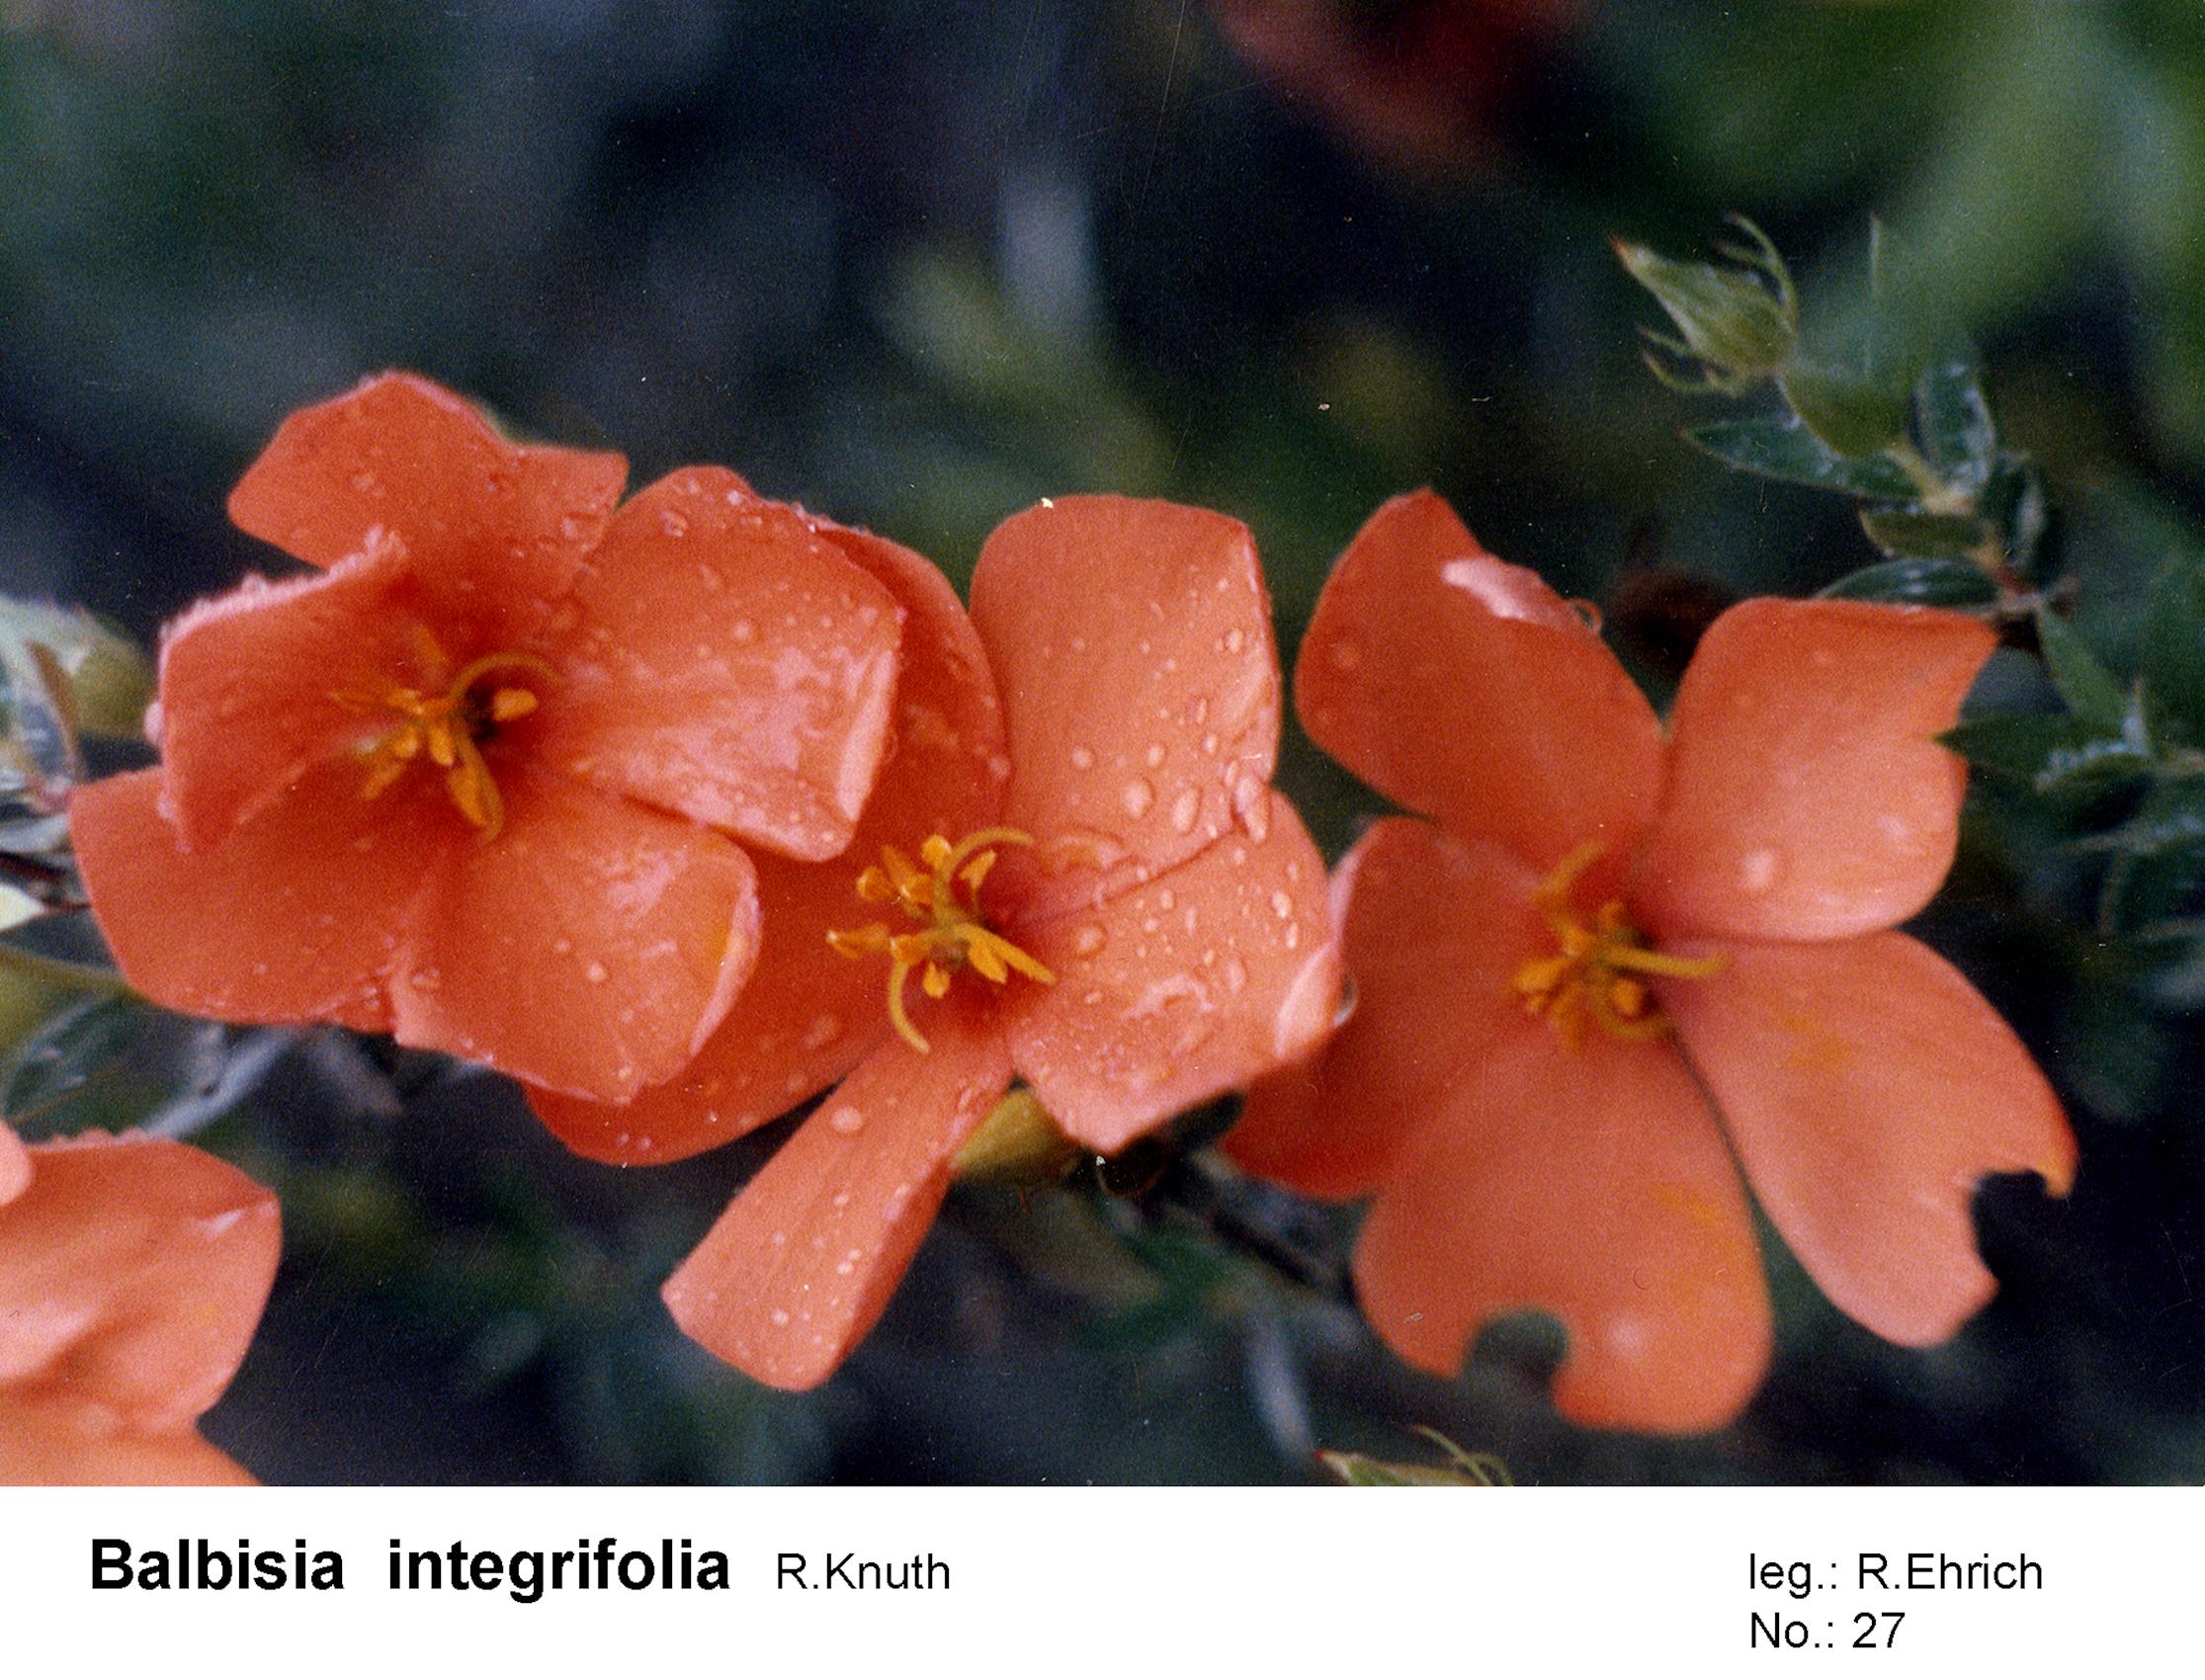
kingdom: Plantae
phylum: Tracheophyta
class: Magnoliopsida
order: Geraniales
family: Vivianiaceae
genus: Balbisia
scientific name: Balbisia integrifolia
